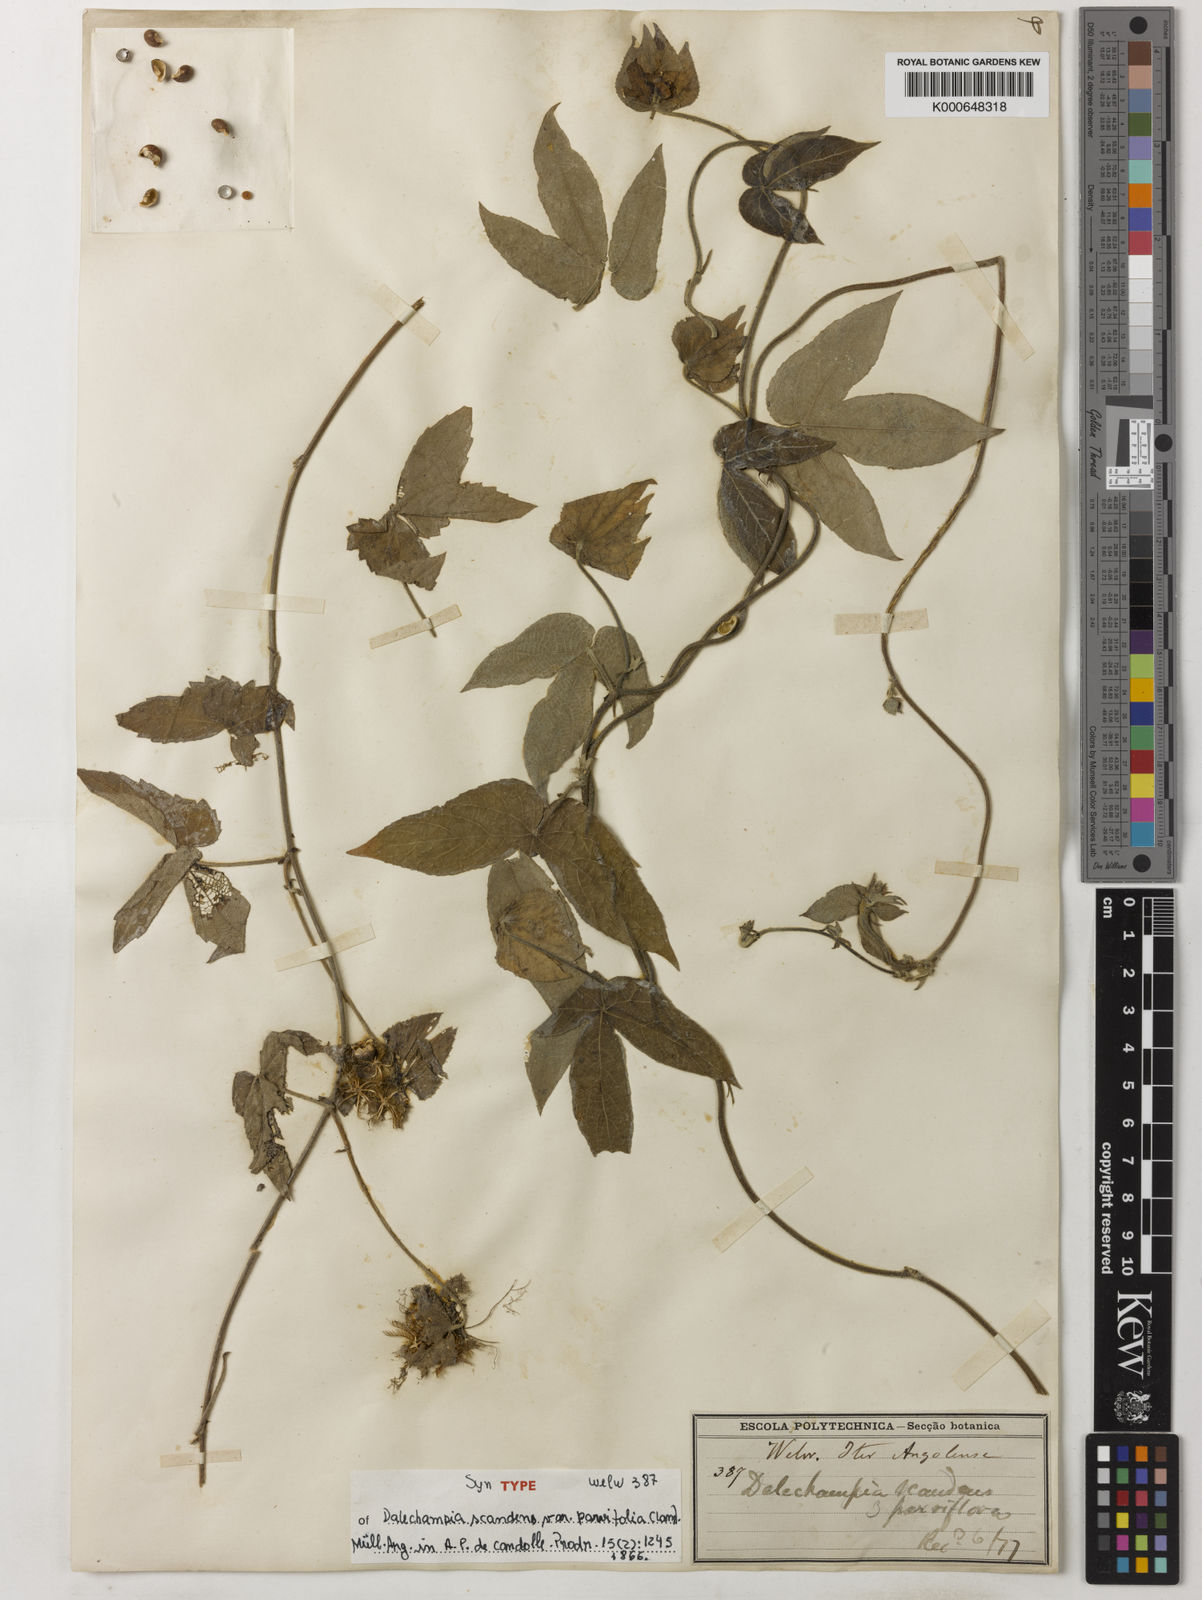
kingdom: Plantae
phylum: Tracheophyta
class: Magnoliopsida
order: Malpighiales
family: Euphorbiaceae
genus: Dalechampia
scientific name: Dalechampia scandens
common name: Spurgecreeper
